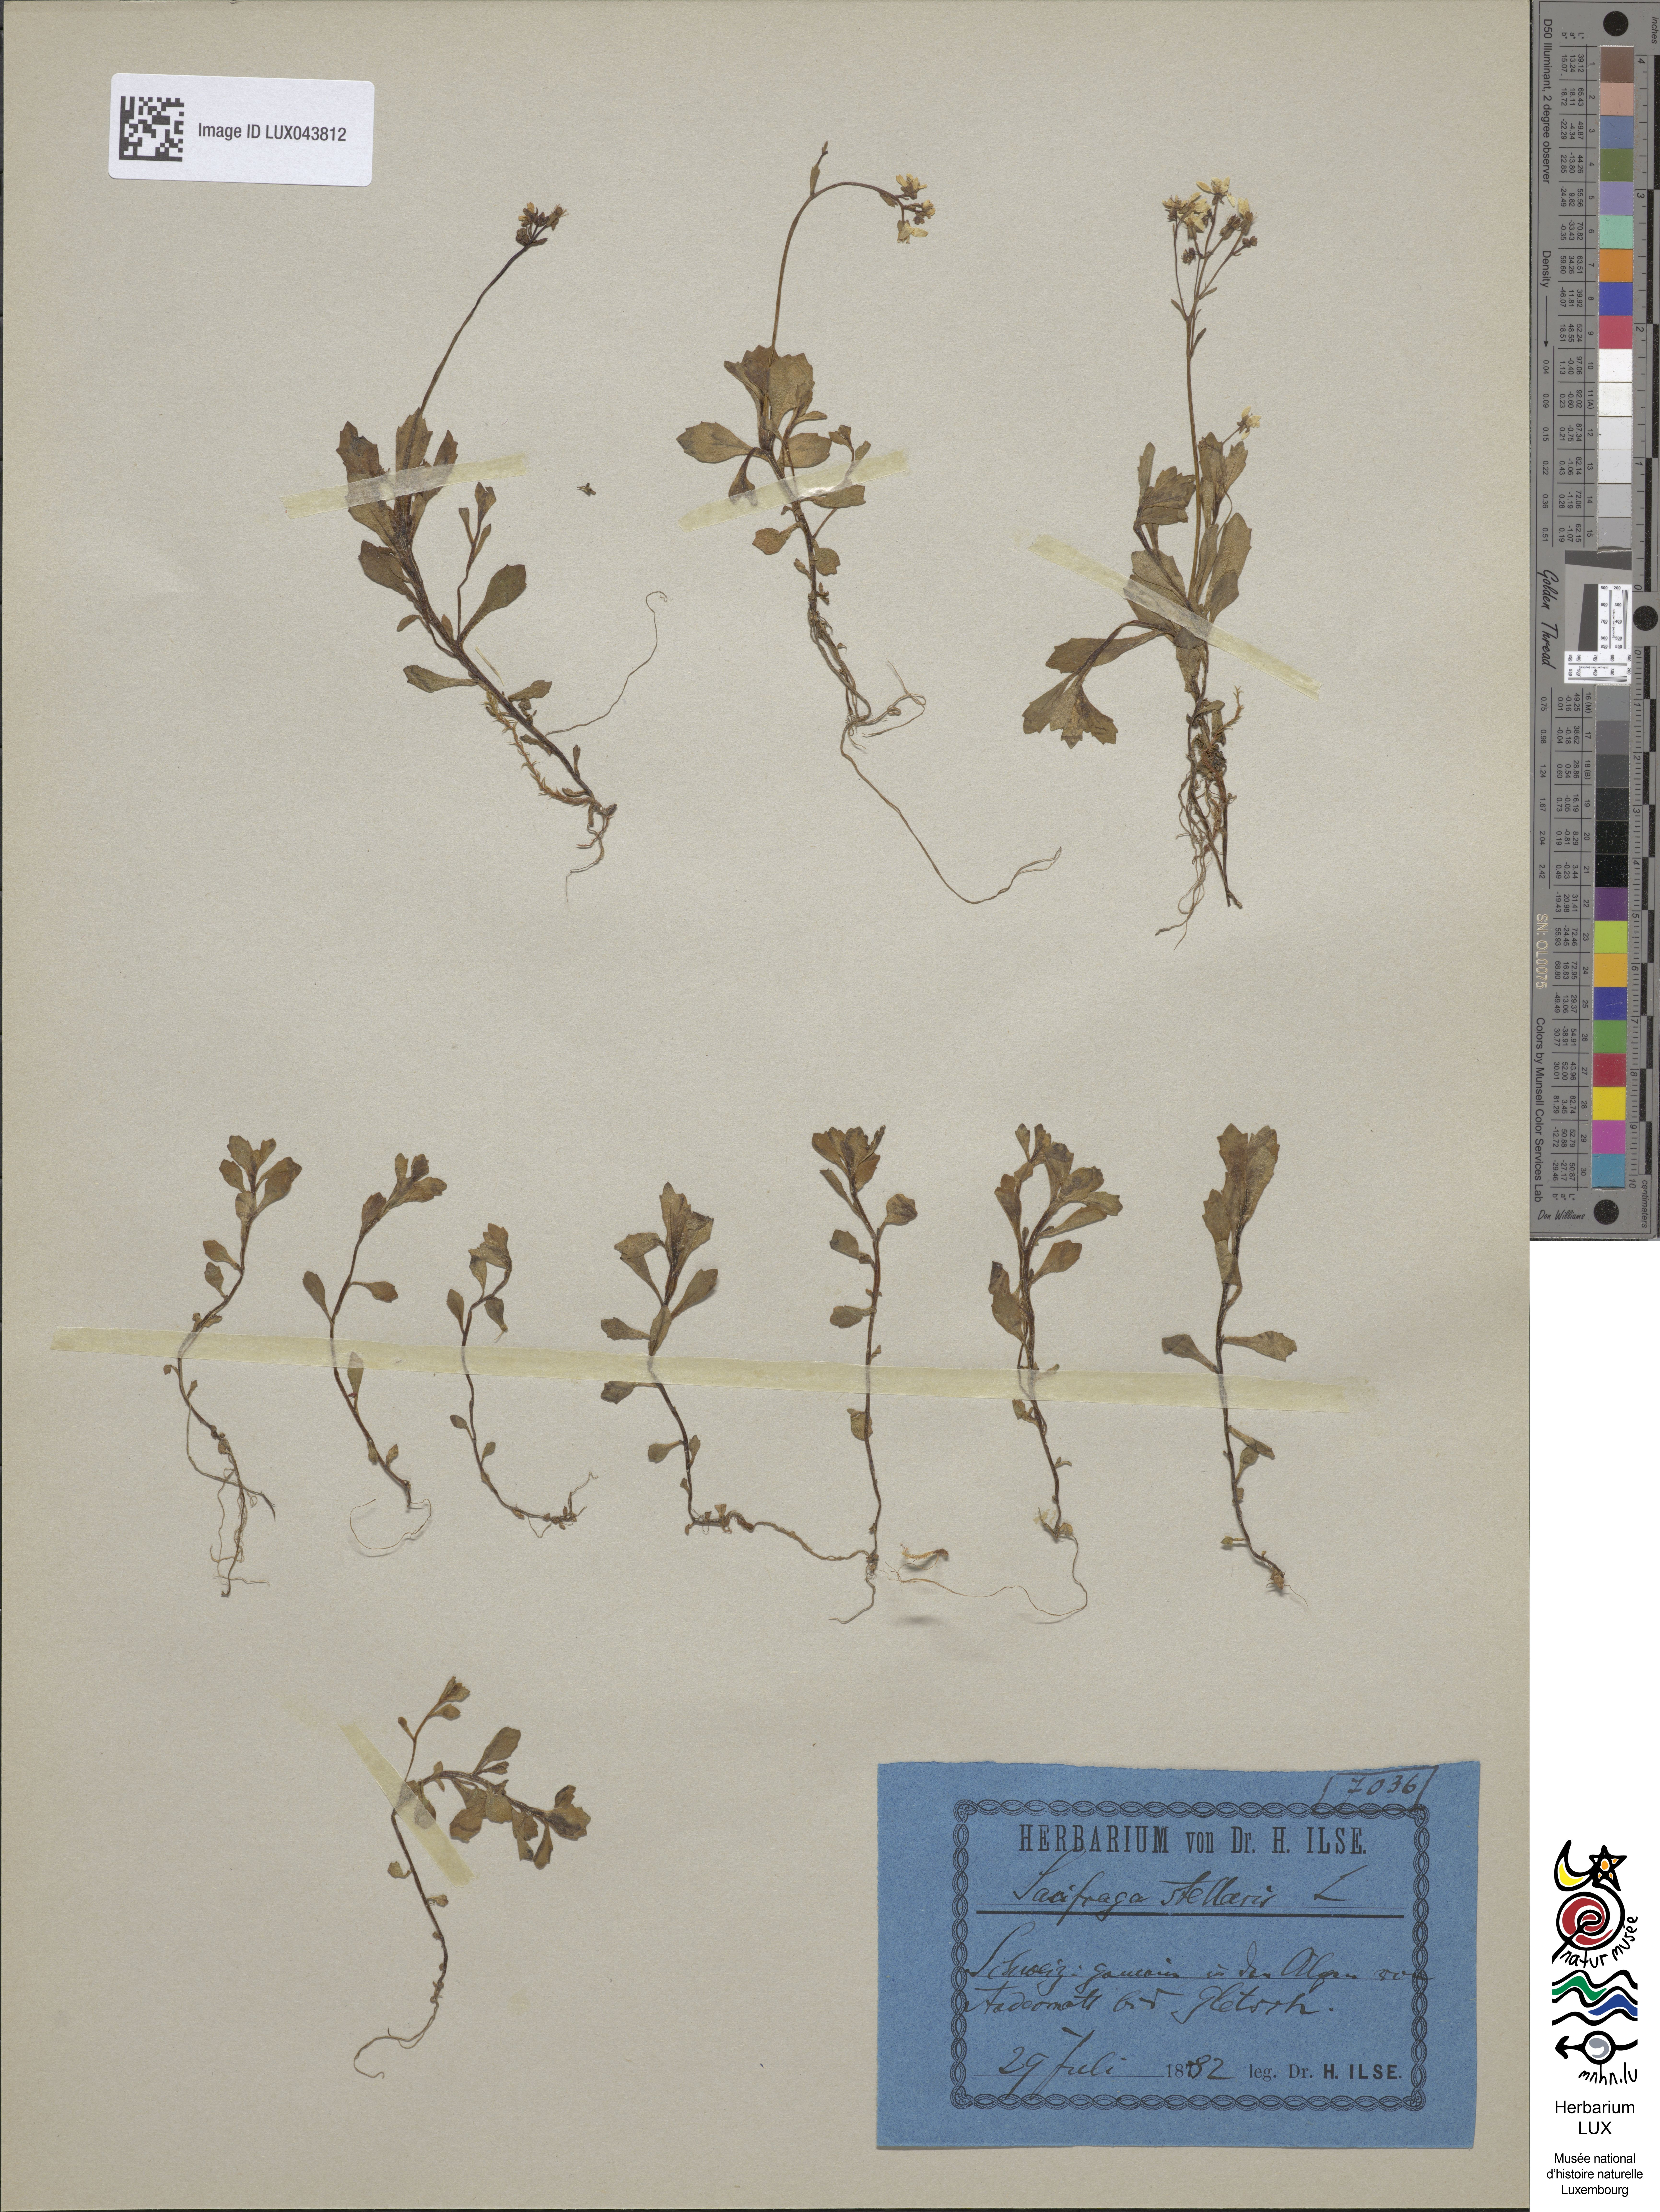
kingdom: Plantae
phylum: Tracheophyta
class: Magnoliopsida
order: Saxifragales
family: Saxifragaceae
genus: Micranthes
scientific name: Micranthes stellaris
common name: Starry saxifrage
